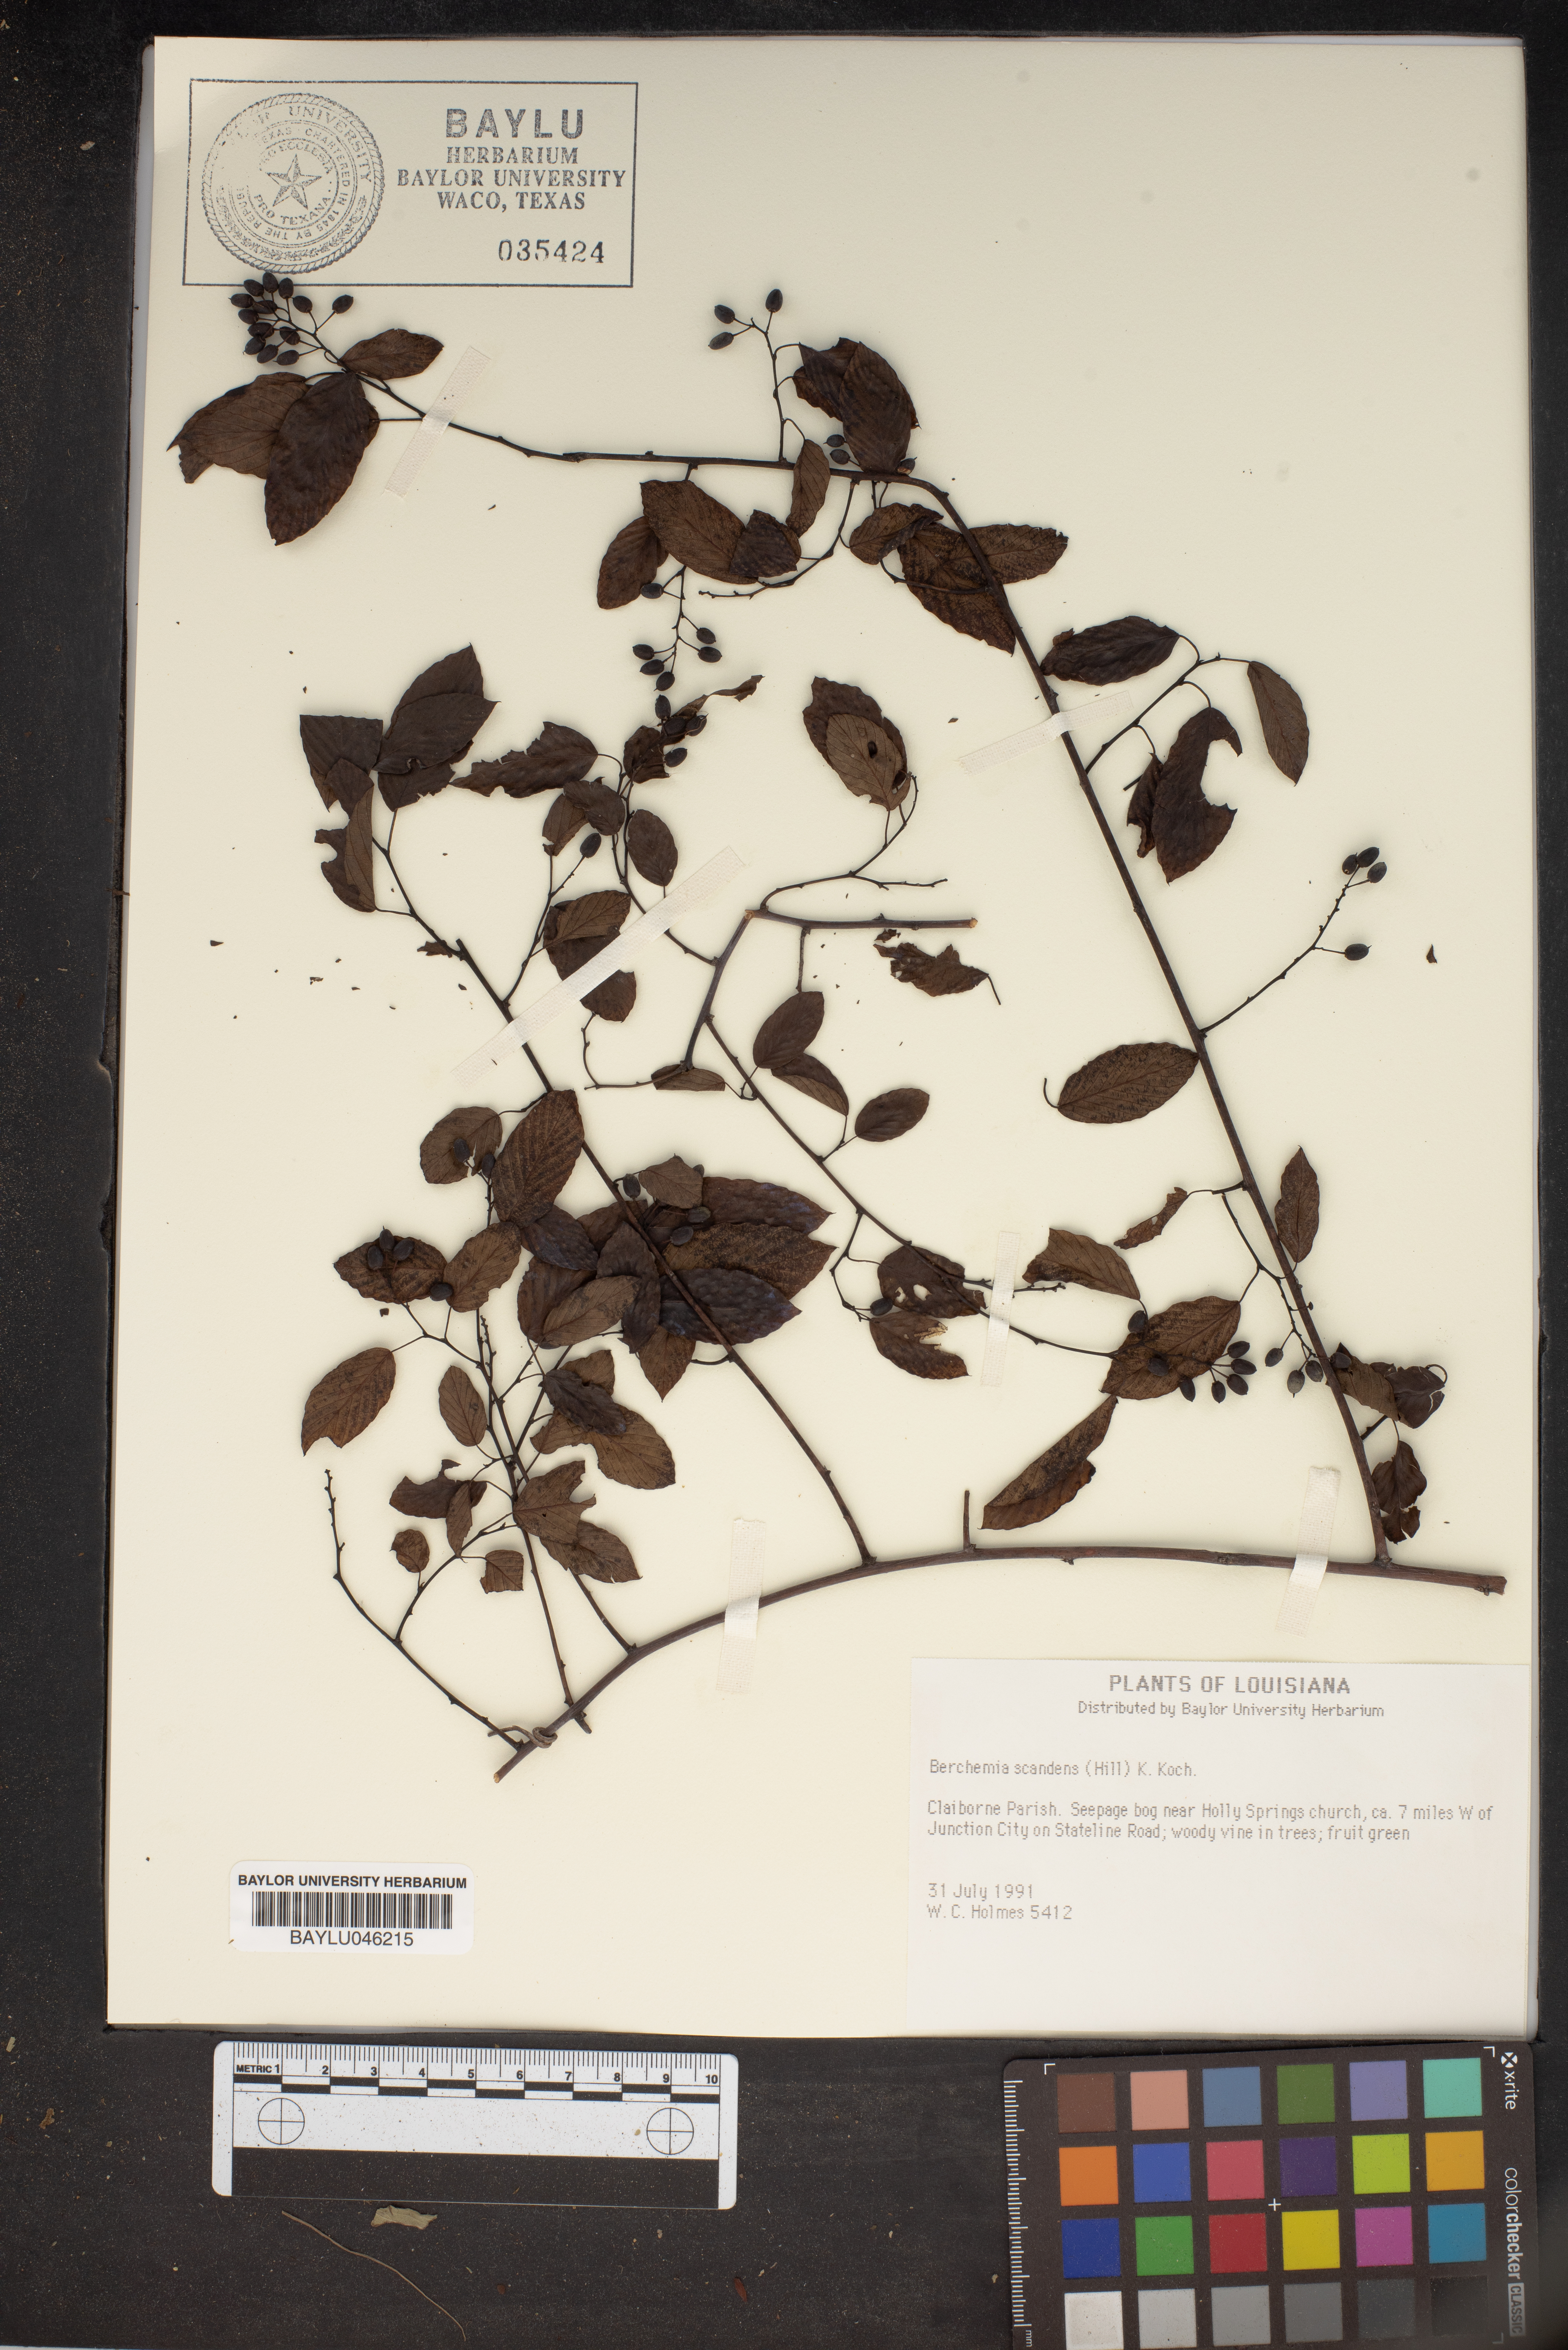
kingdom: Plantae
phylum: Tracheophyta
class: Magnoliopsida
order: Rosales
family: Rhamnaceae
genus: Berchemia
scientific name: Berchemia scandens
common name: Supplejack
